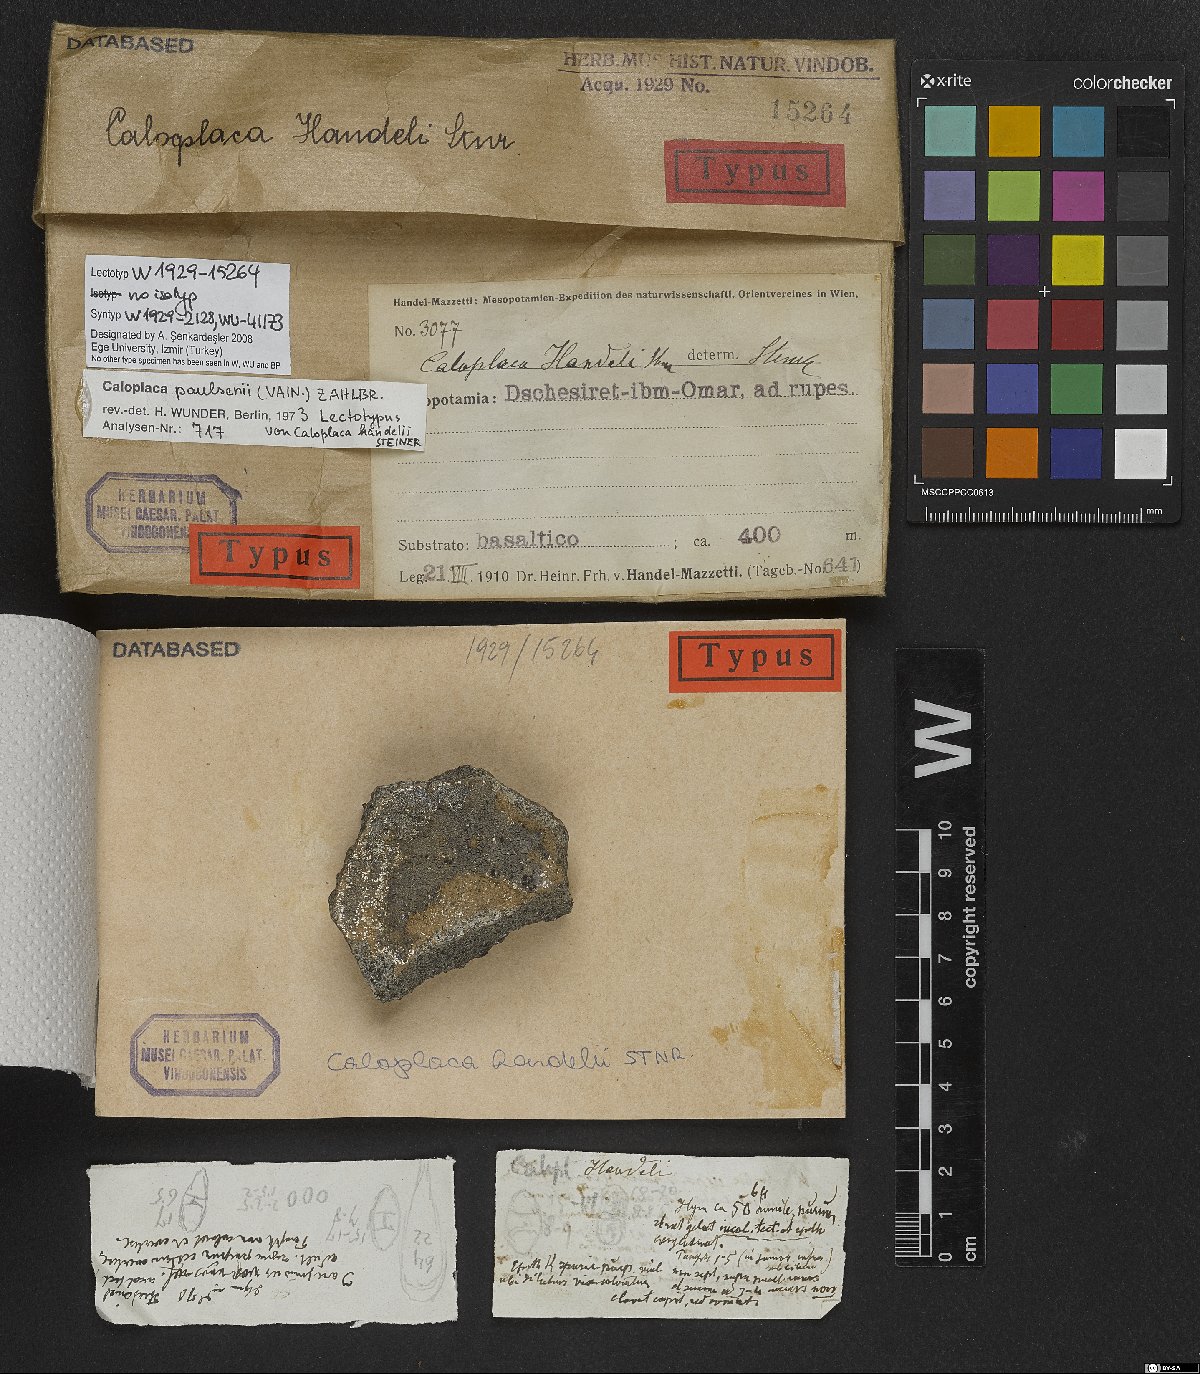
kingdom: Fungi
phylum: Ascomycota
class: Lecanoromycetes
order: Teloschistales
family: Teloschistaceae
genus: Caloplaca
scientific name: Caloplaca
